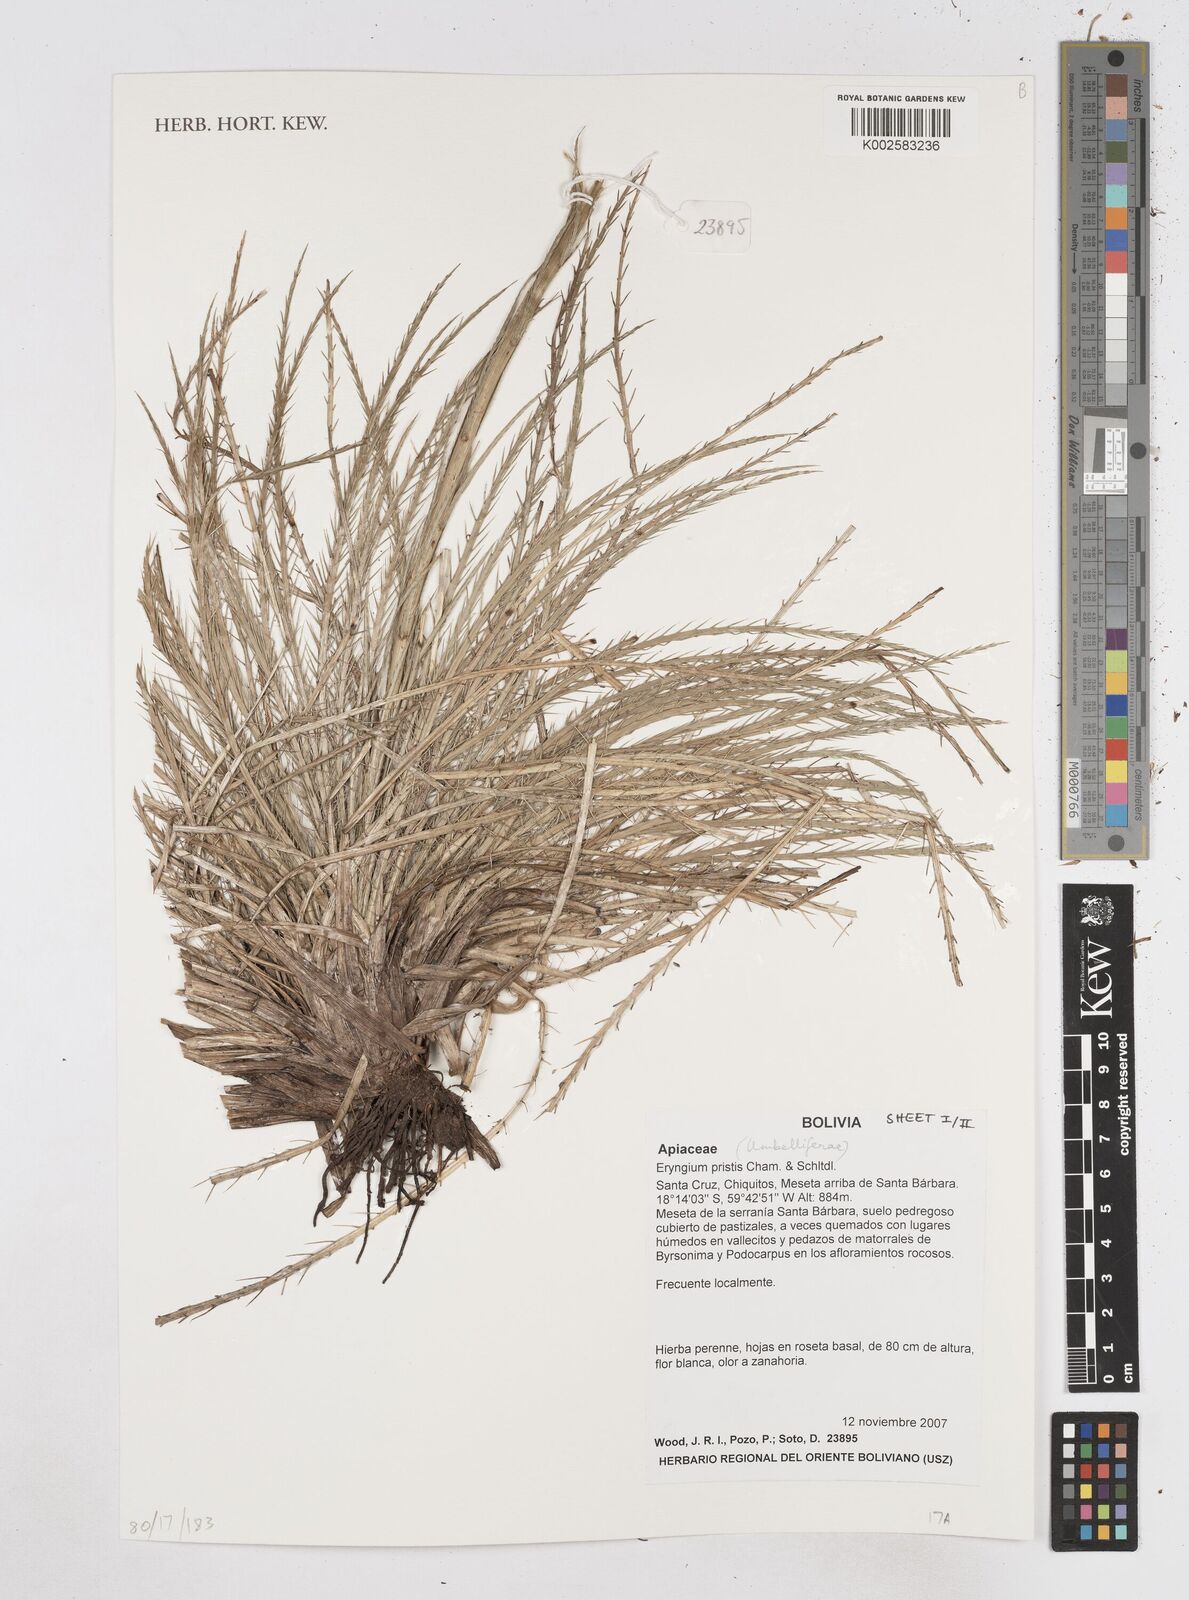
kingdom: Plantae
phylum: Tracheophyta
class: Magnoliopsida
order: Apiales
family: Apiaceae
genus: Eryngium
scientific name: Eryngium pristis
